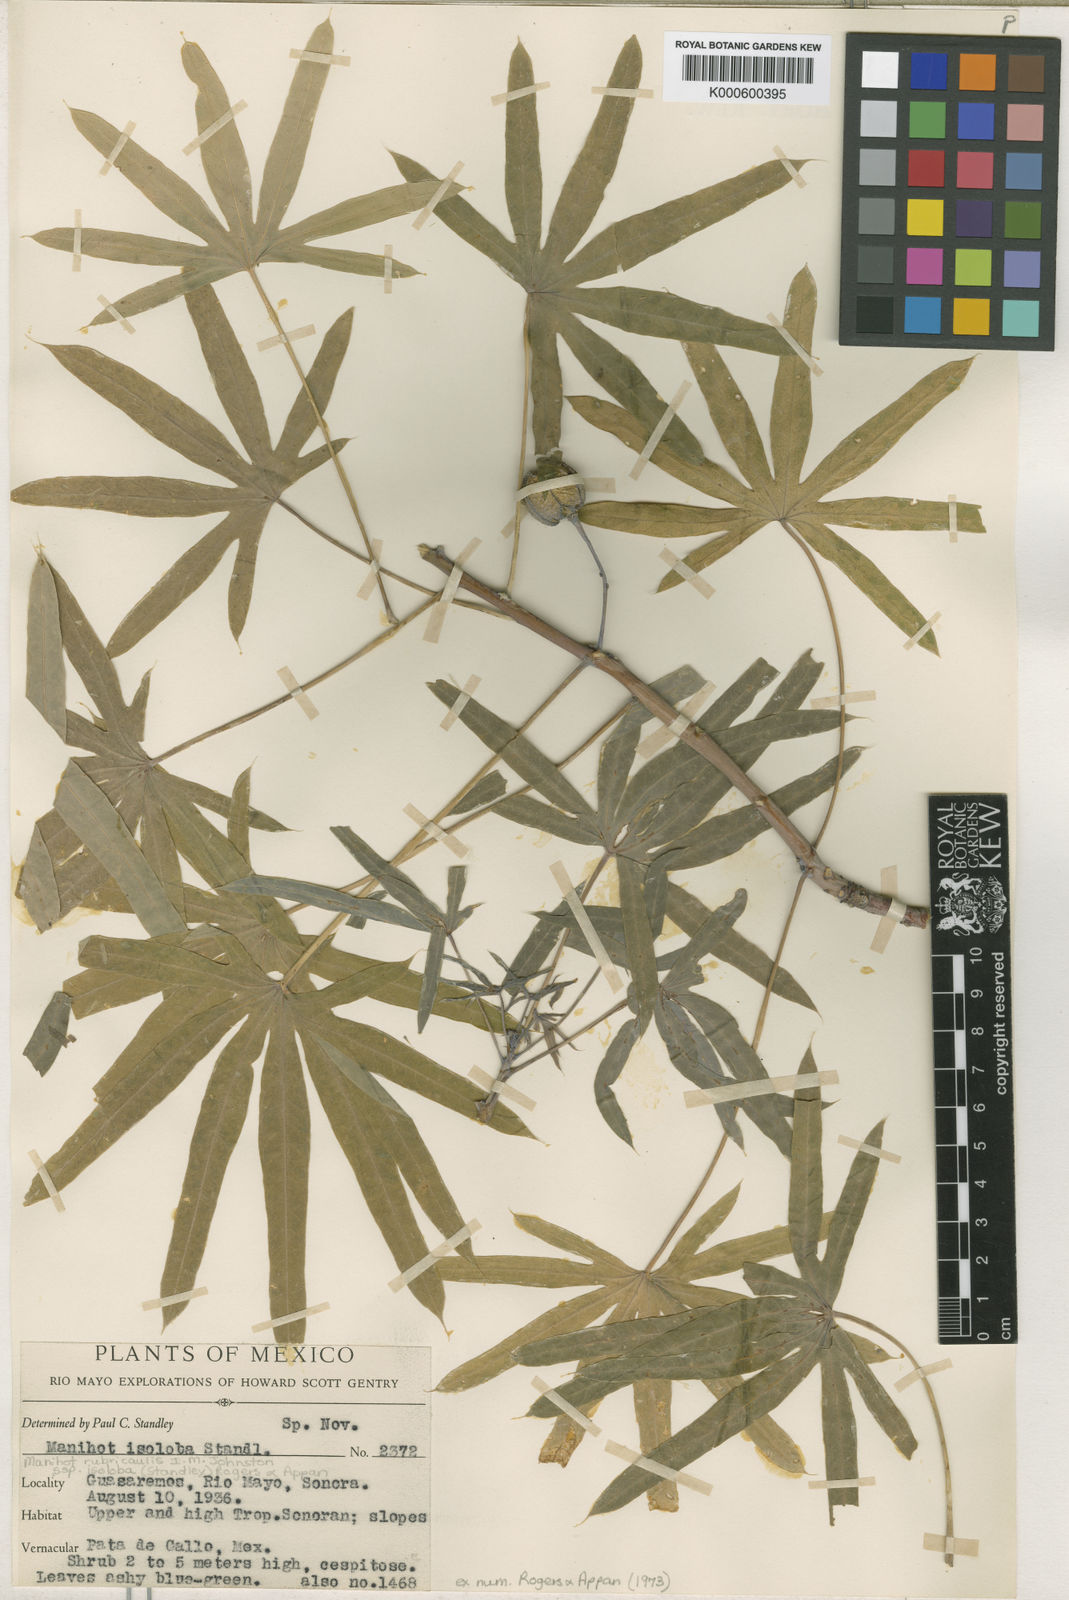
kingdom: Plantae
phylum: Tracheophyta
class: Magnoliopsida
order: Malpighiales
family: Euphorbiaceae
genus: Manihot
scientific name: Manihot rubricaulis
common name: Redstem cassava
